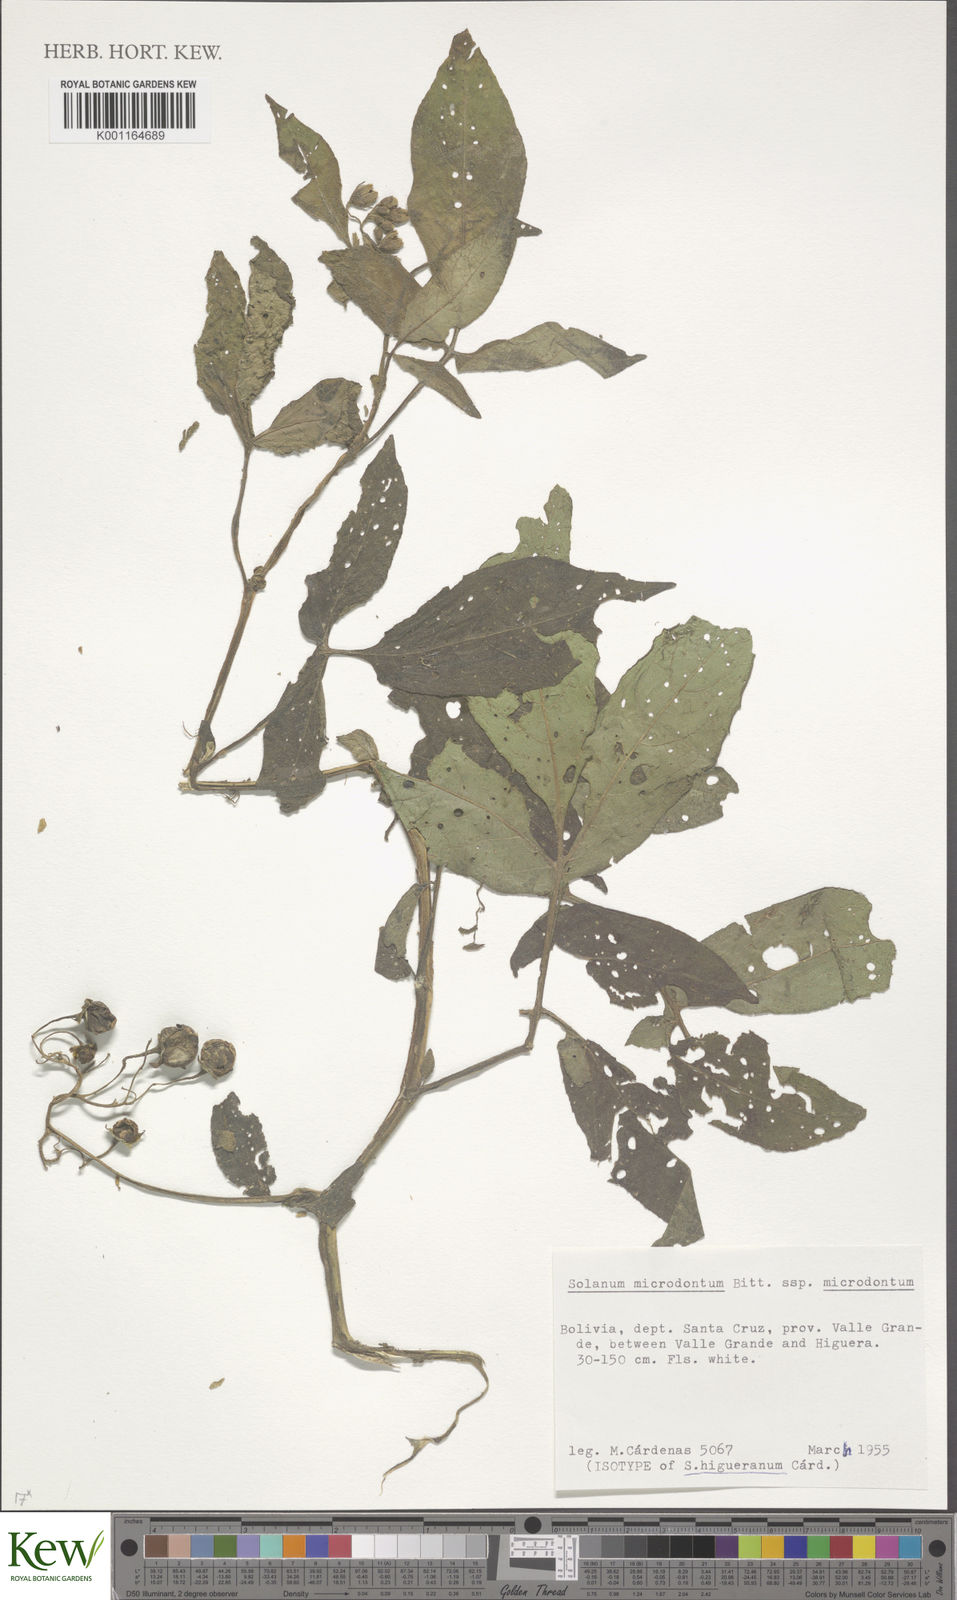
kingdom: Plantae
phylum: Tracheophyta
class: Magnoliopsida
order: Solanales
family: Solanaceae
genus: Solanum
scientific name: Solanum microdontum
